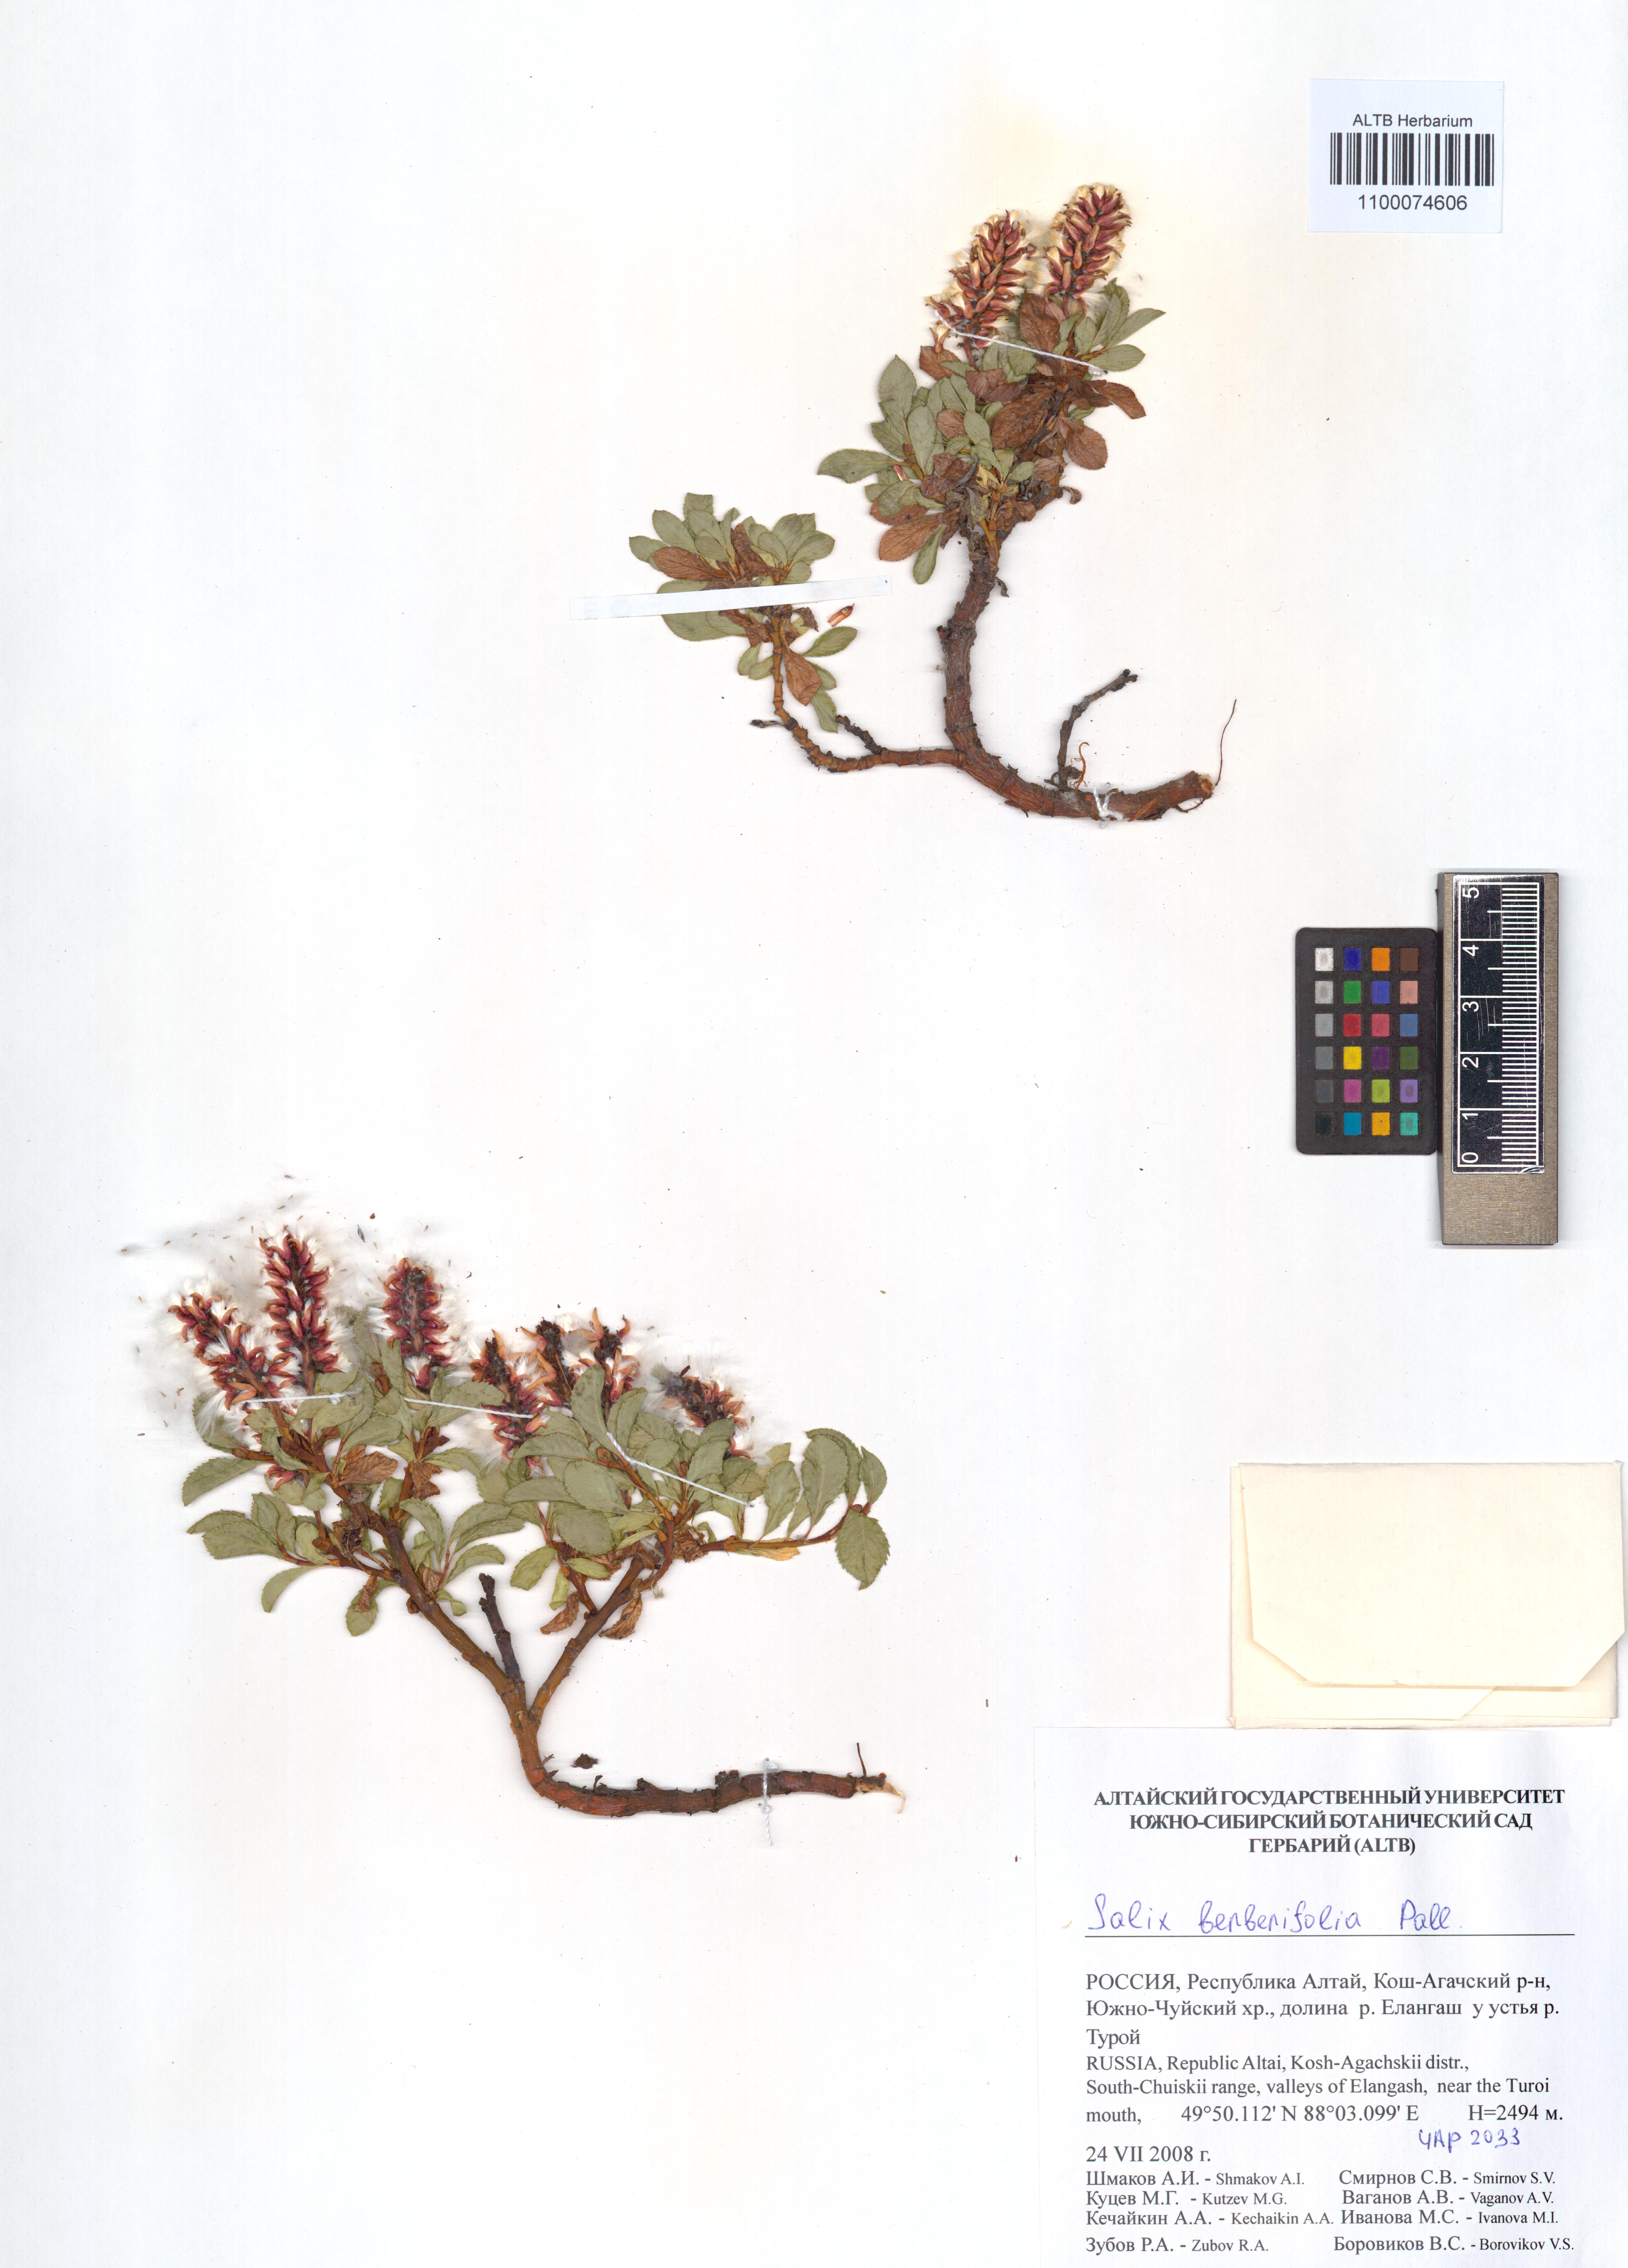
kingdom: Plantae
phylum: Tracheophyta
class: Magnoliopsida
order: Malpighiales
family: Salicaceae
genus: Salix
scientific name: Salix berberifolia
